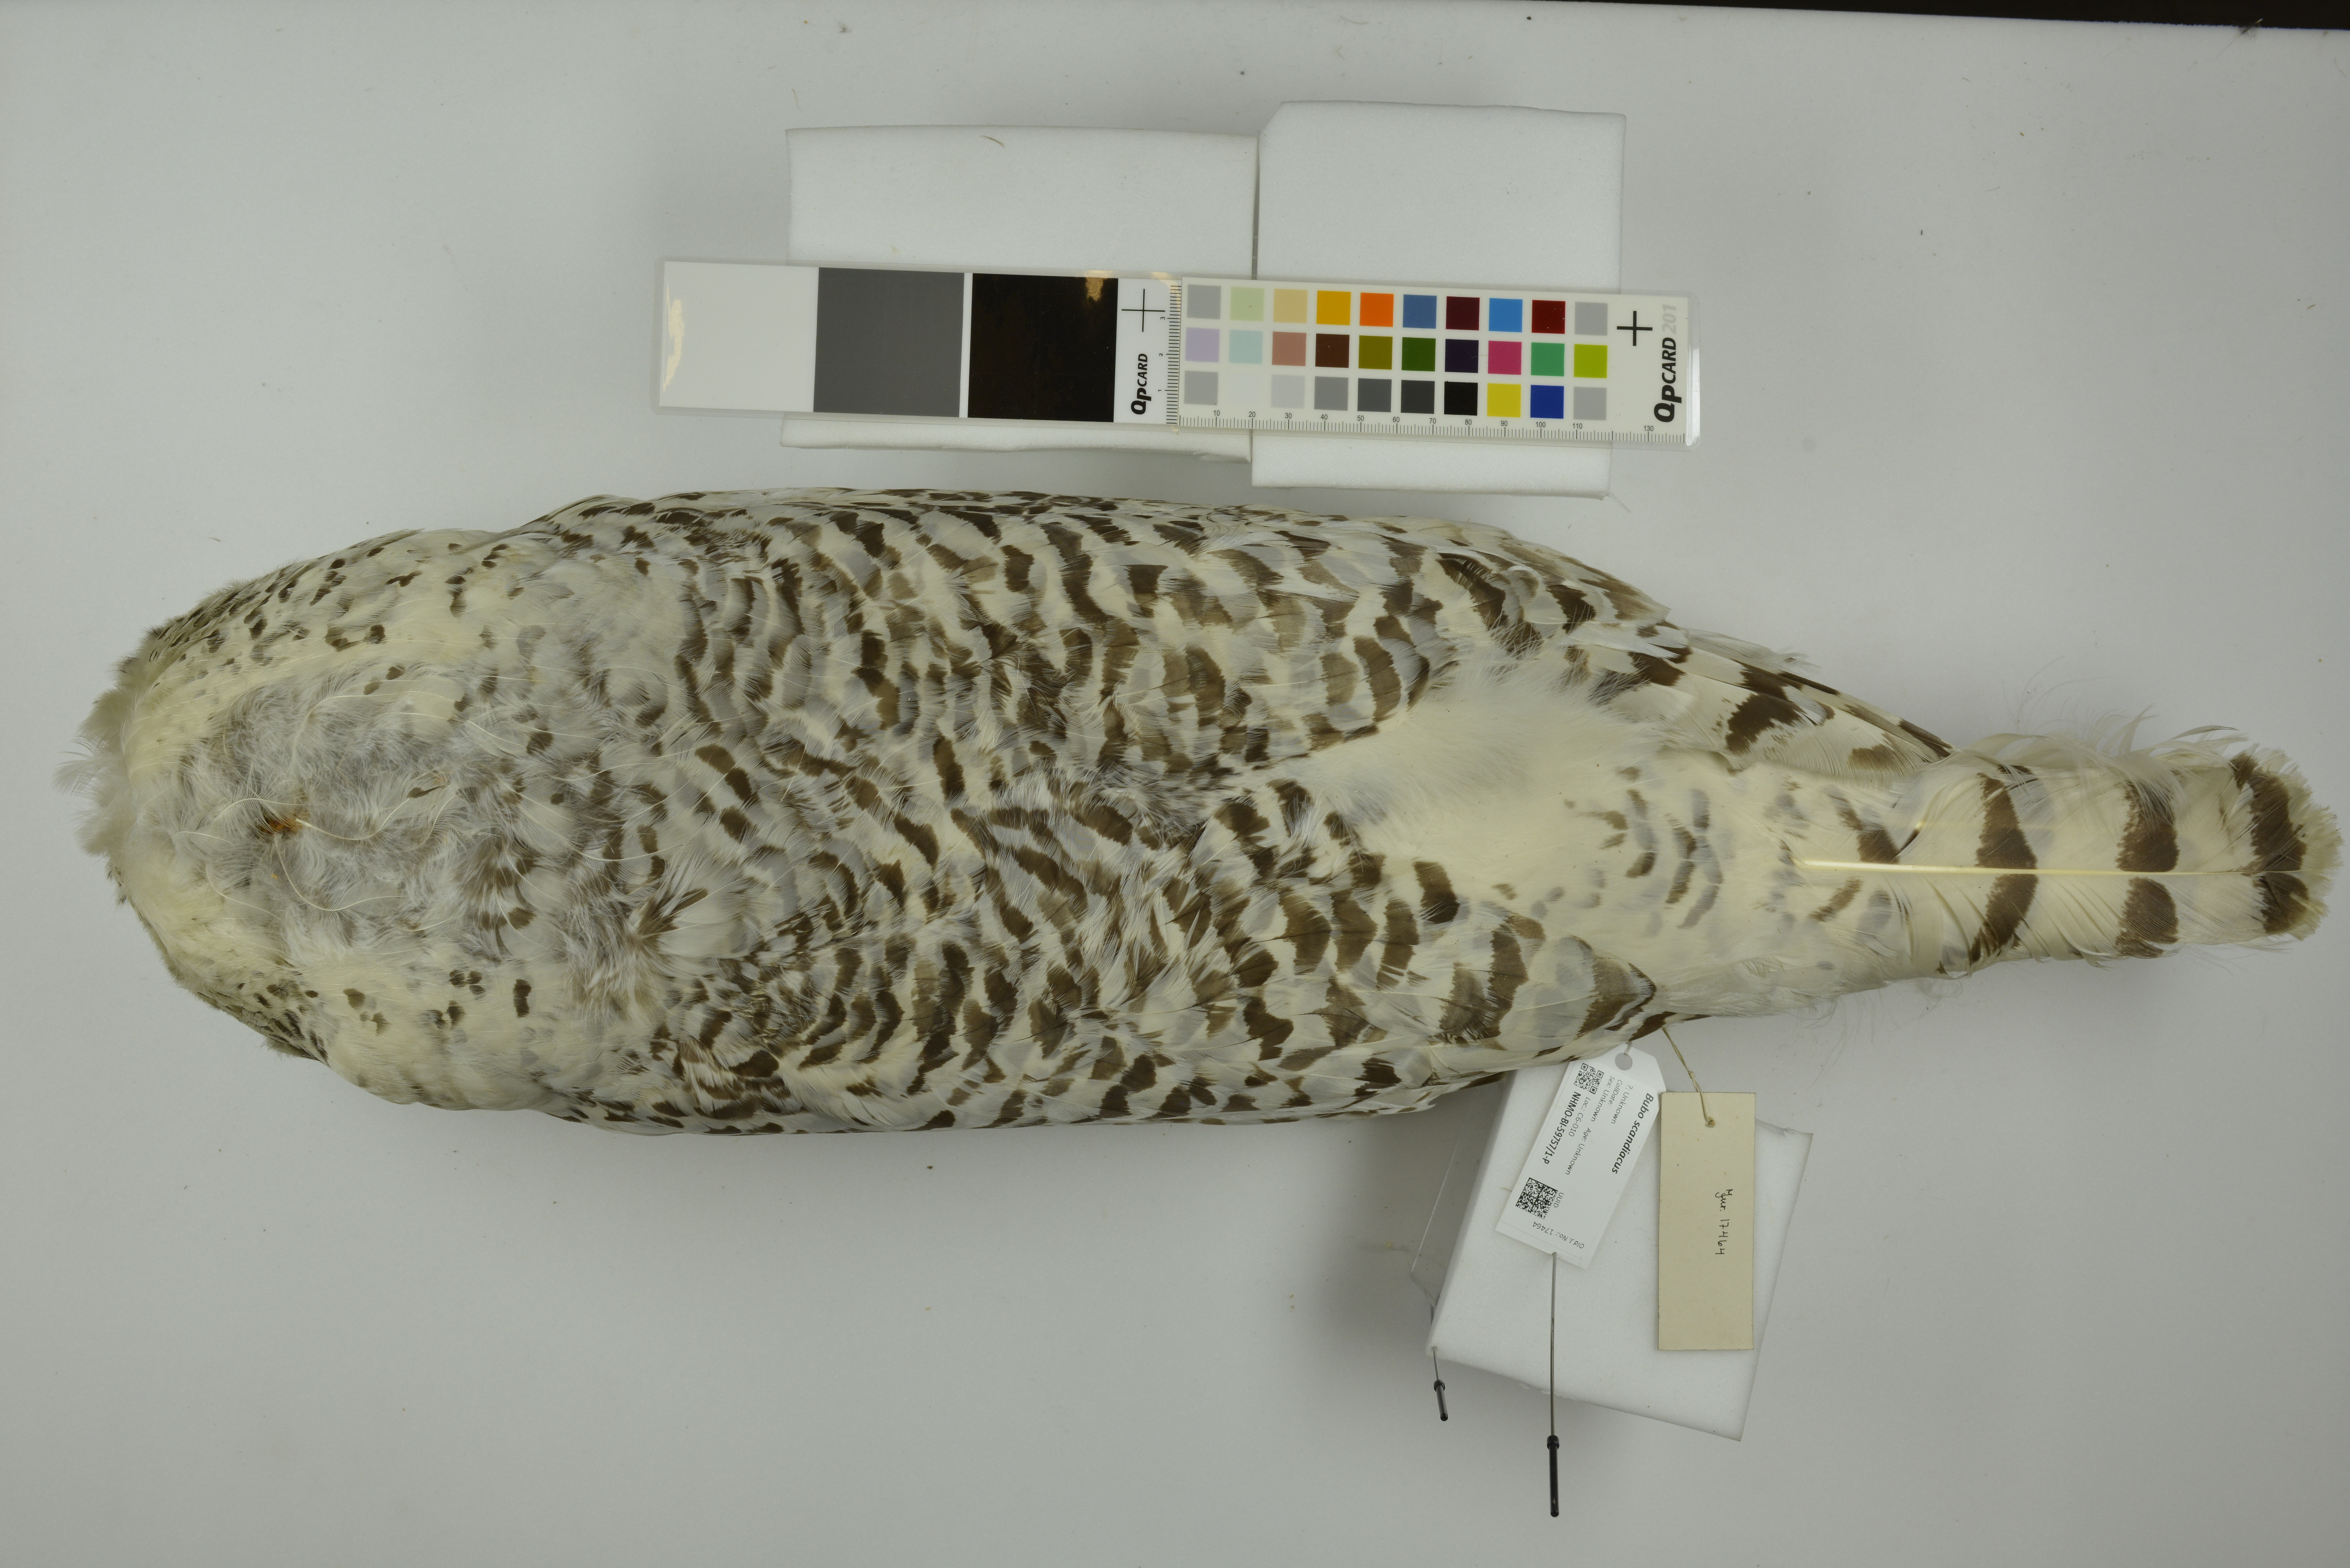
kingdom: Animalia
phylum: Chordata
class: Aves
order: Strigiformes
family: Strigidae
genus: Bubo
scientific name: Bubo scandiacus
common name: Snowy owl
